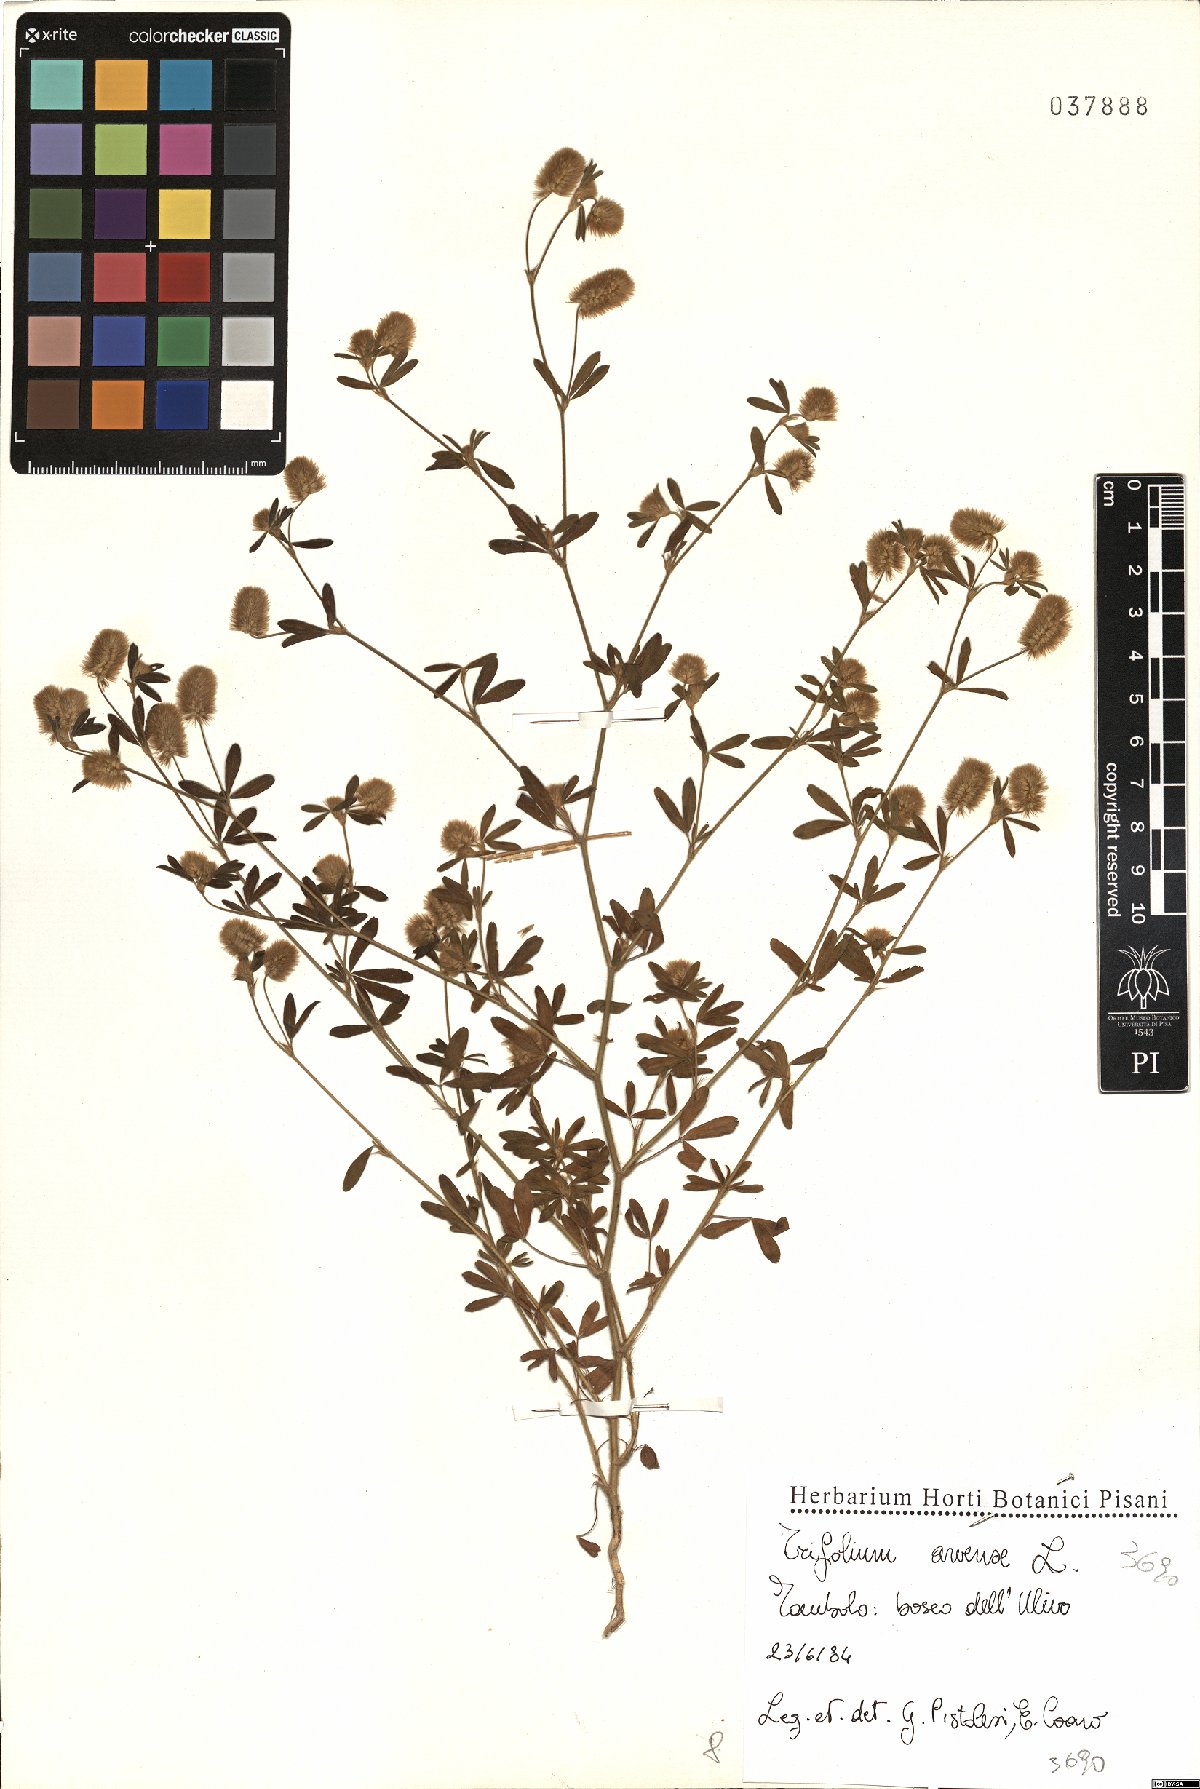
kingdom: Plantae
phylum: Tracheophyta
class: Magnoliopsida
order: Fabales
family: Fabaceae
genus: Trifolium
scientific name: Trifolium arvense
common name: Hare's-foot clover
